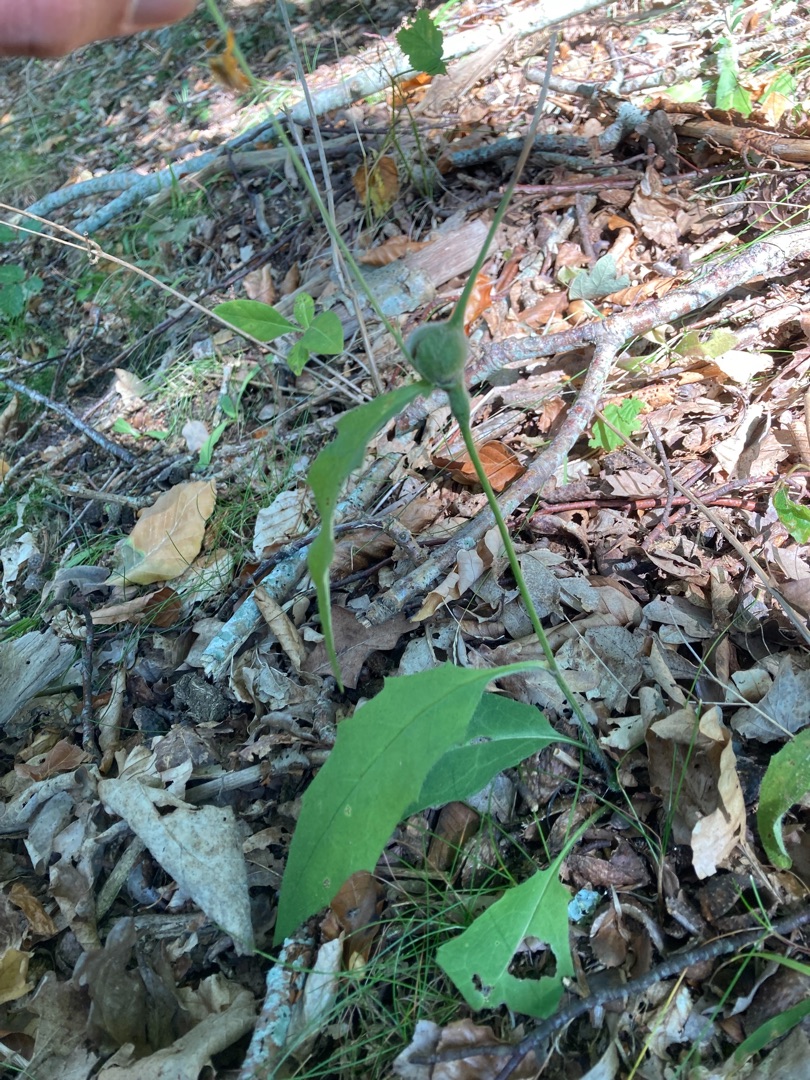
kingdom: Plantae
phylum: Tracheophyta
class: Magnoliopsida
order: Asterales
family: Asteraceae
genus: Hieracium
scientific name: Hieracium
